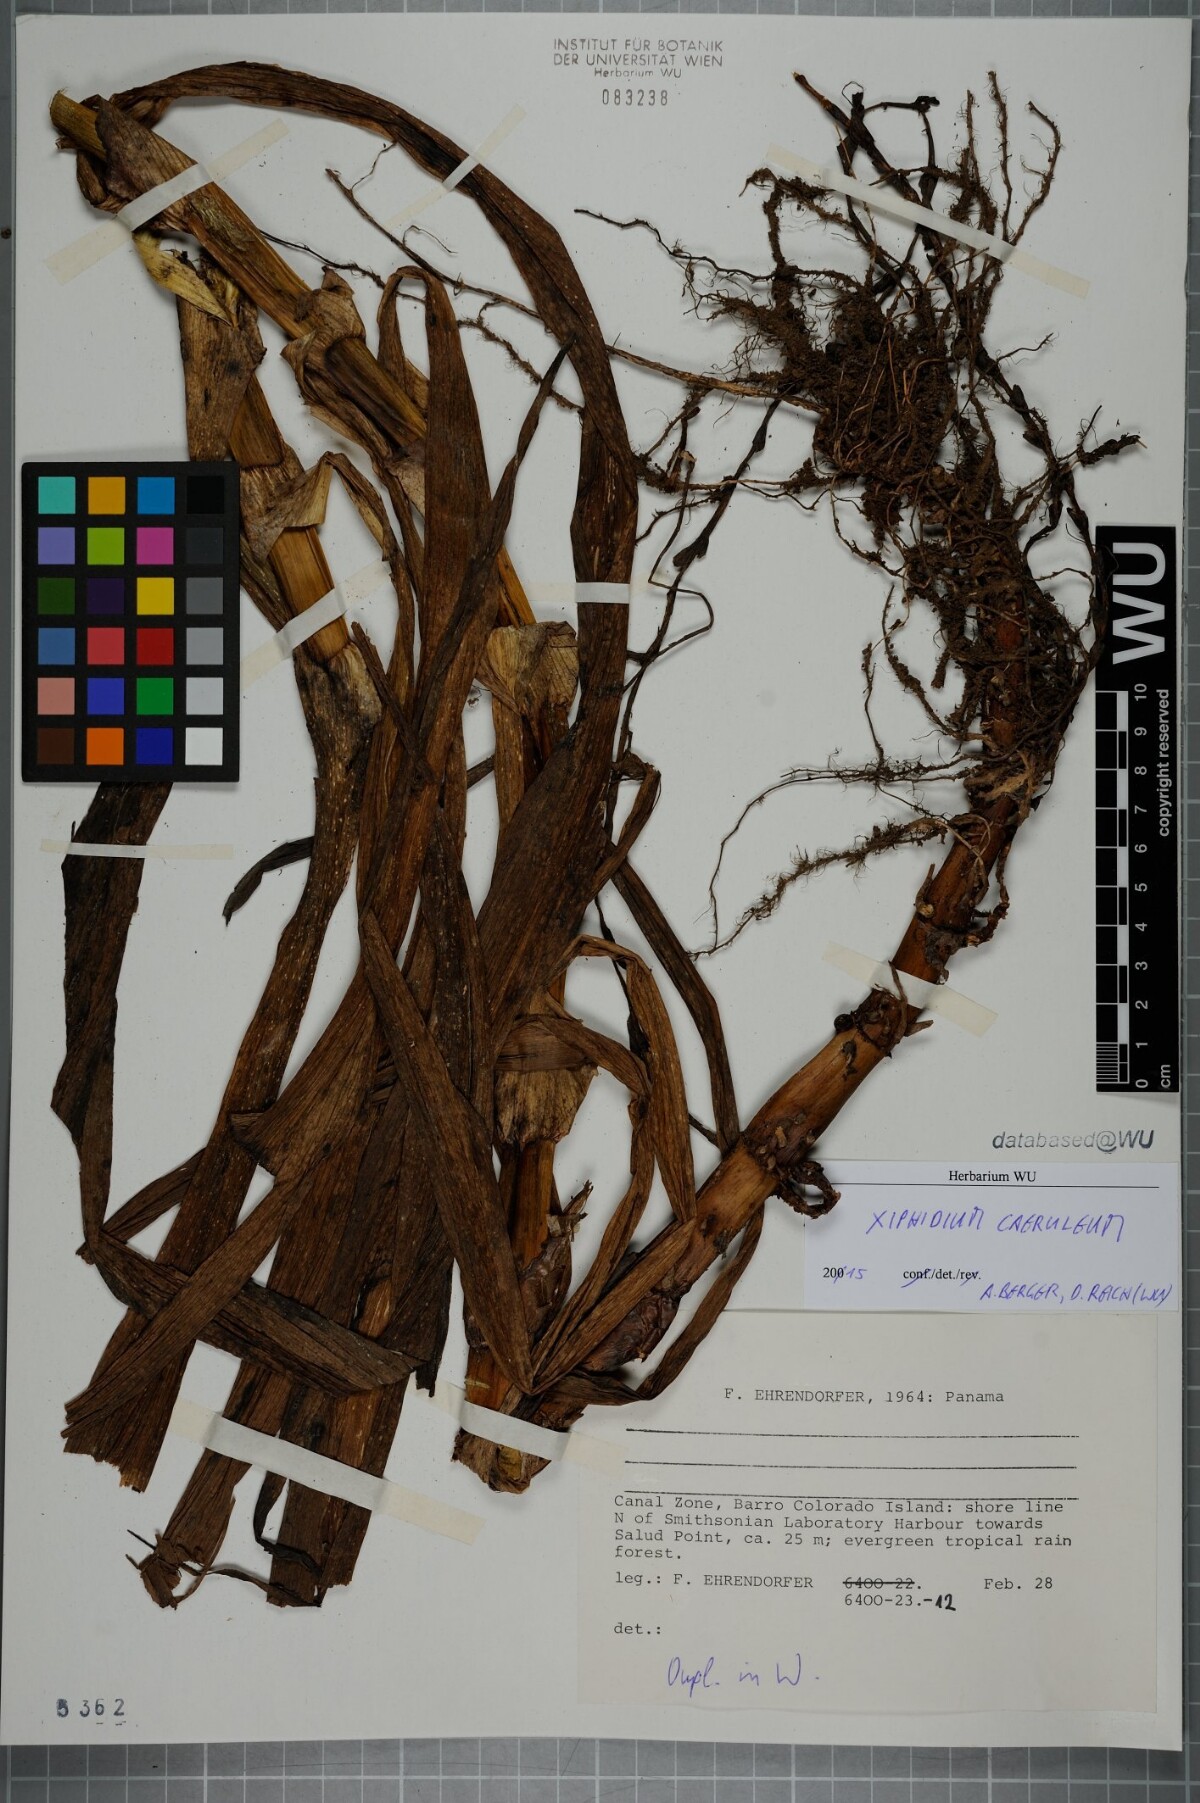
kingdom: Plantae
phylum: Tracheophyta
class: Liliopsida
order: Commelinales
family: Haemodoraceae
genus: Xiphidium
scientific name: Xiphidium caeruleum
